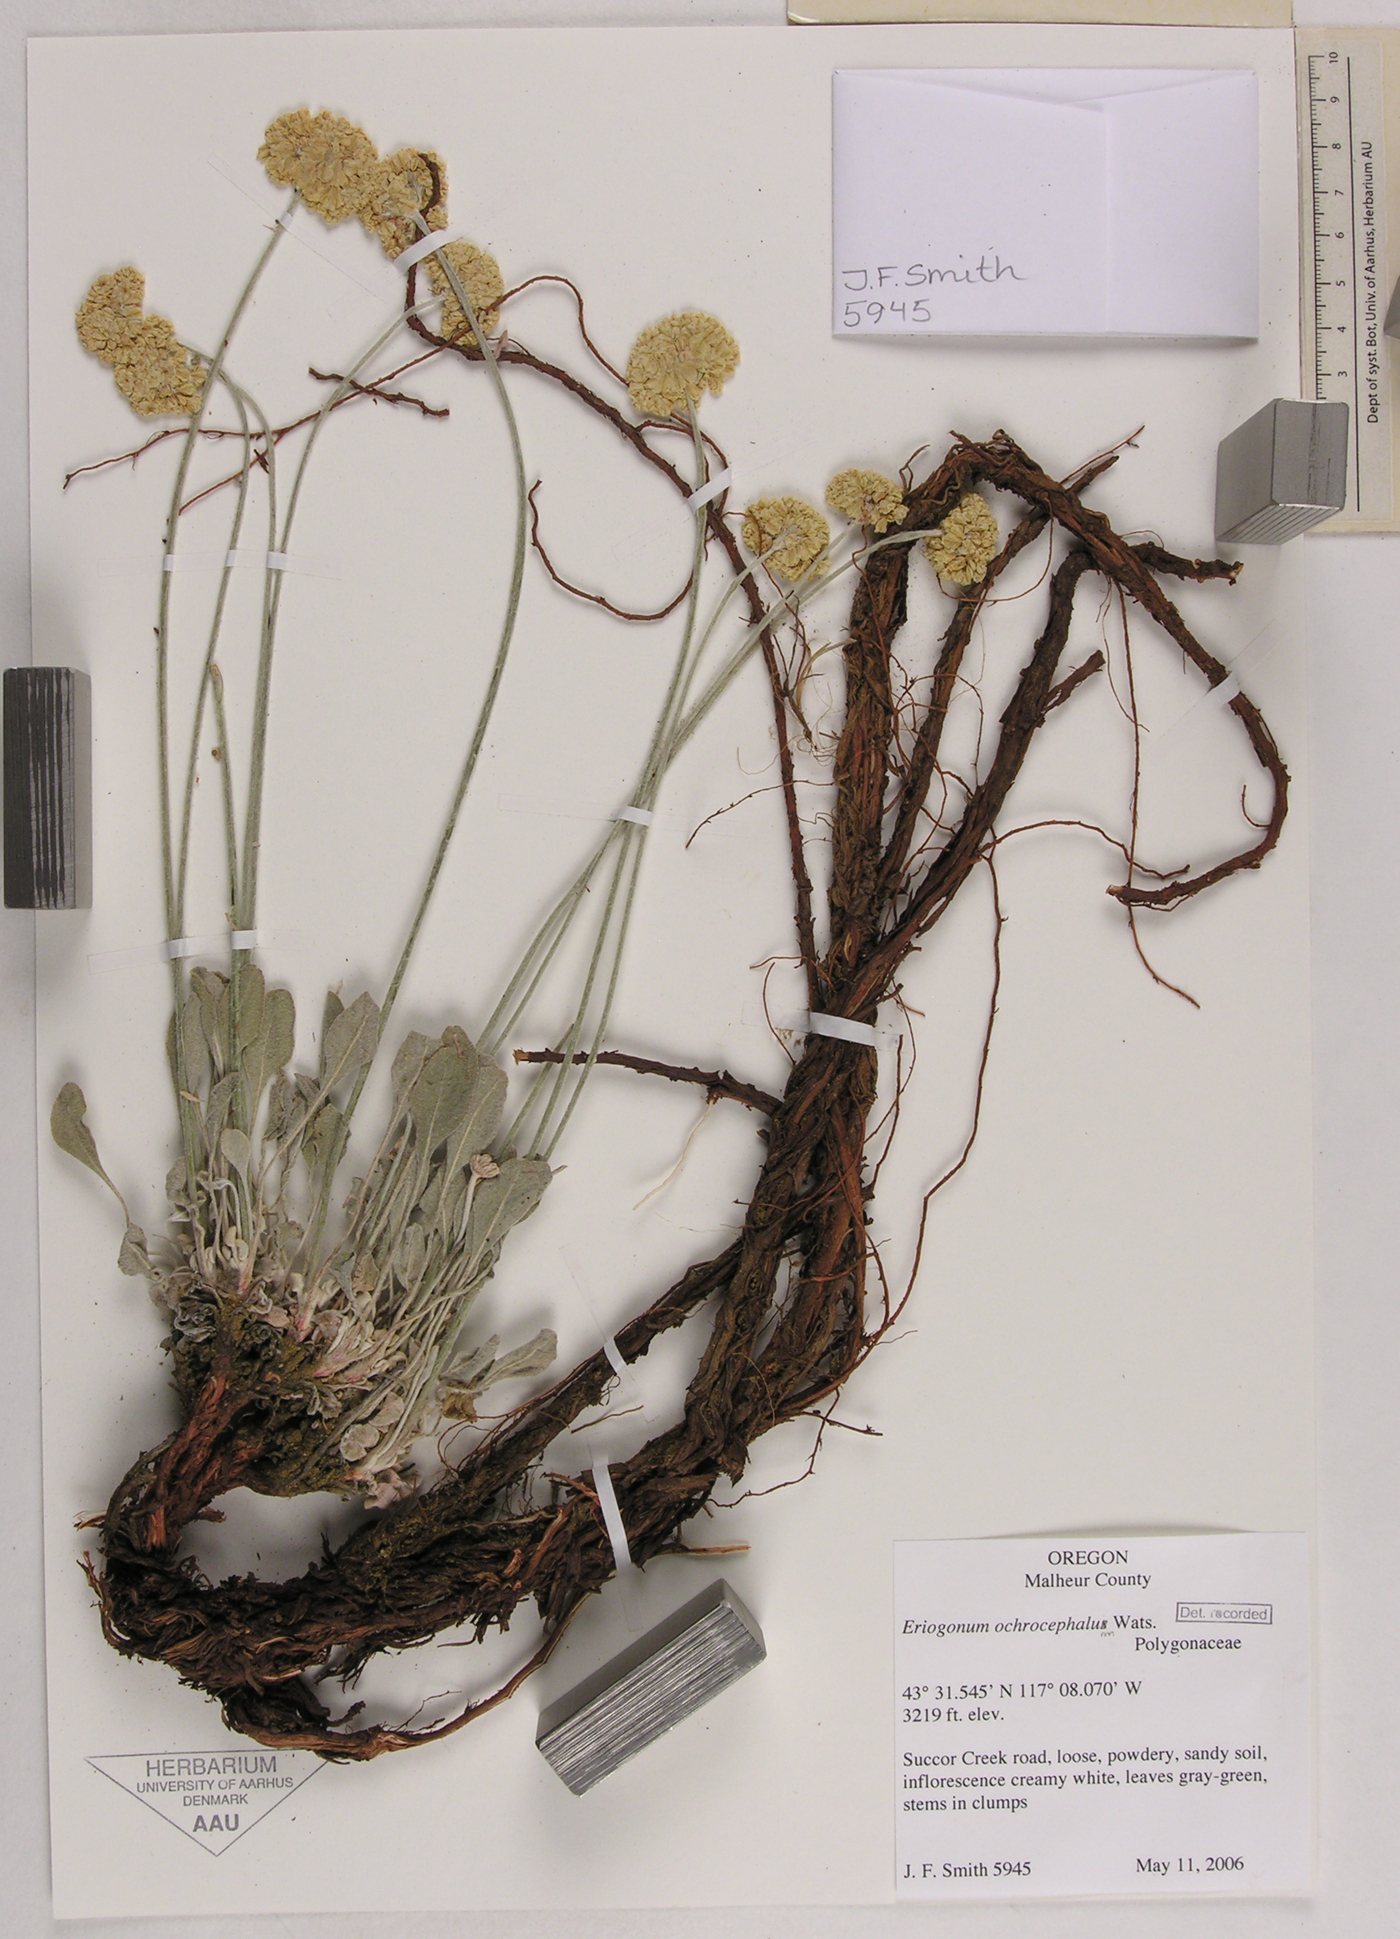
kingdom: Plantae
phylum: Tracheophyta
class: Magnoliopsida
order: Caryophyllales
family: Polygonaceae
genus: Eriogonum
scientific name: Eriogonum ochrocephalum
